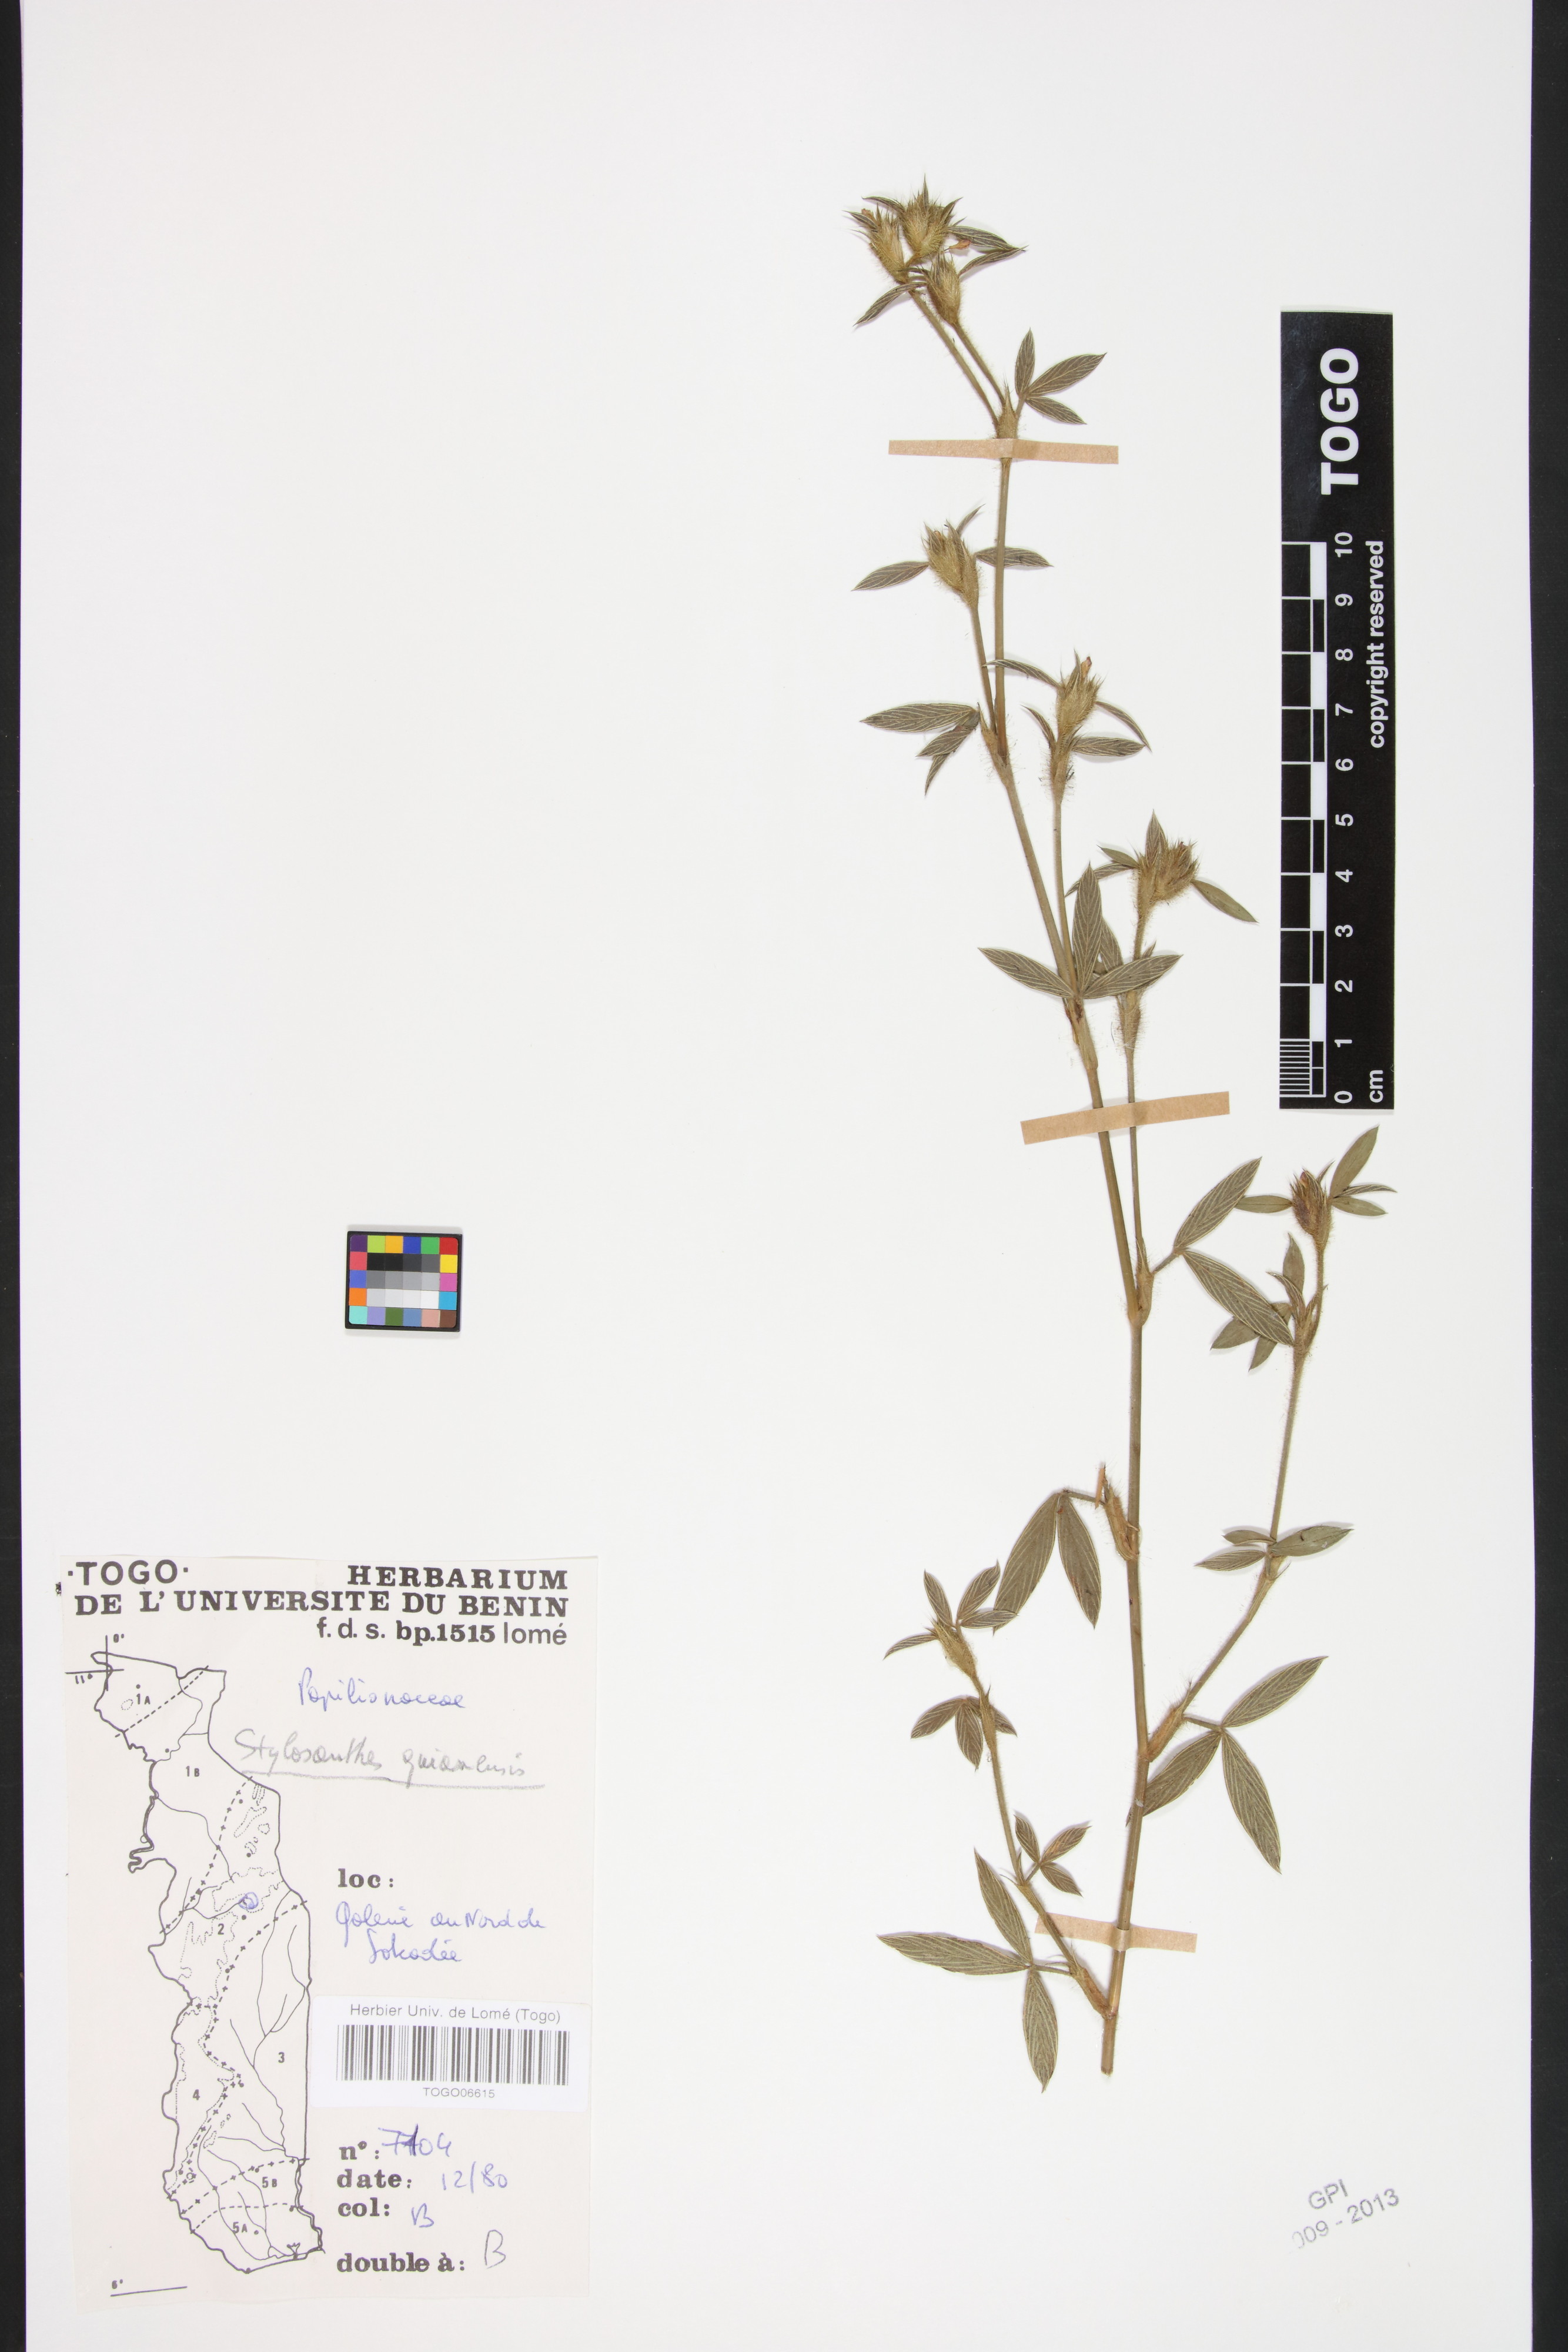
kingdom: Plantae
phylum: Tracheophyta
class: Magnoliopsida
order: Fabales
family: Fabaceae
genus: Stylosanthes
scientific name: Stylosanthes guianensis
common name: Pencil flower
